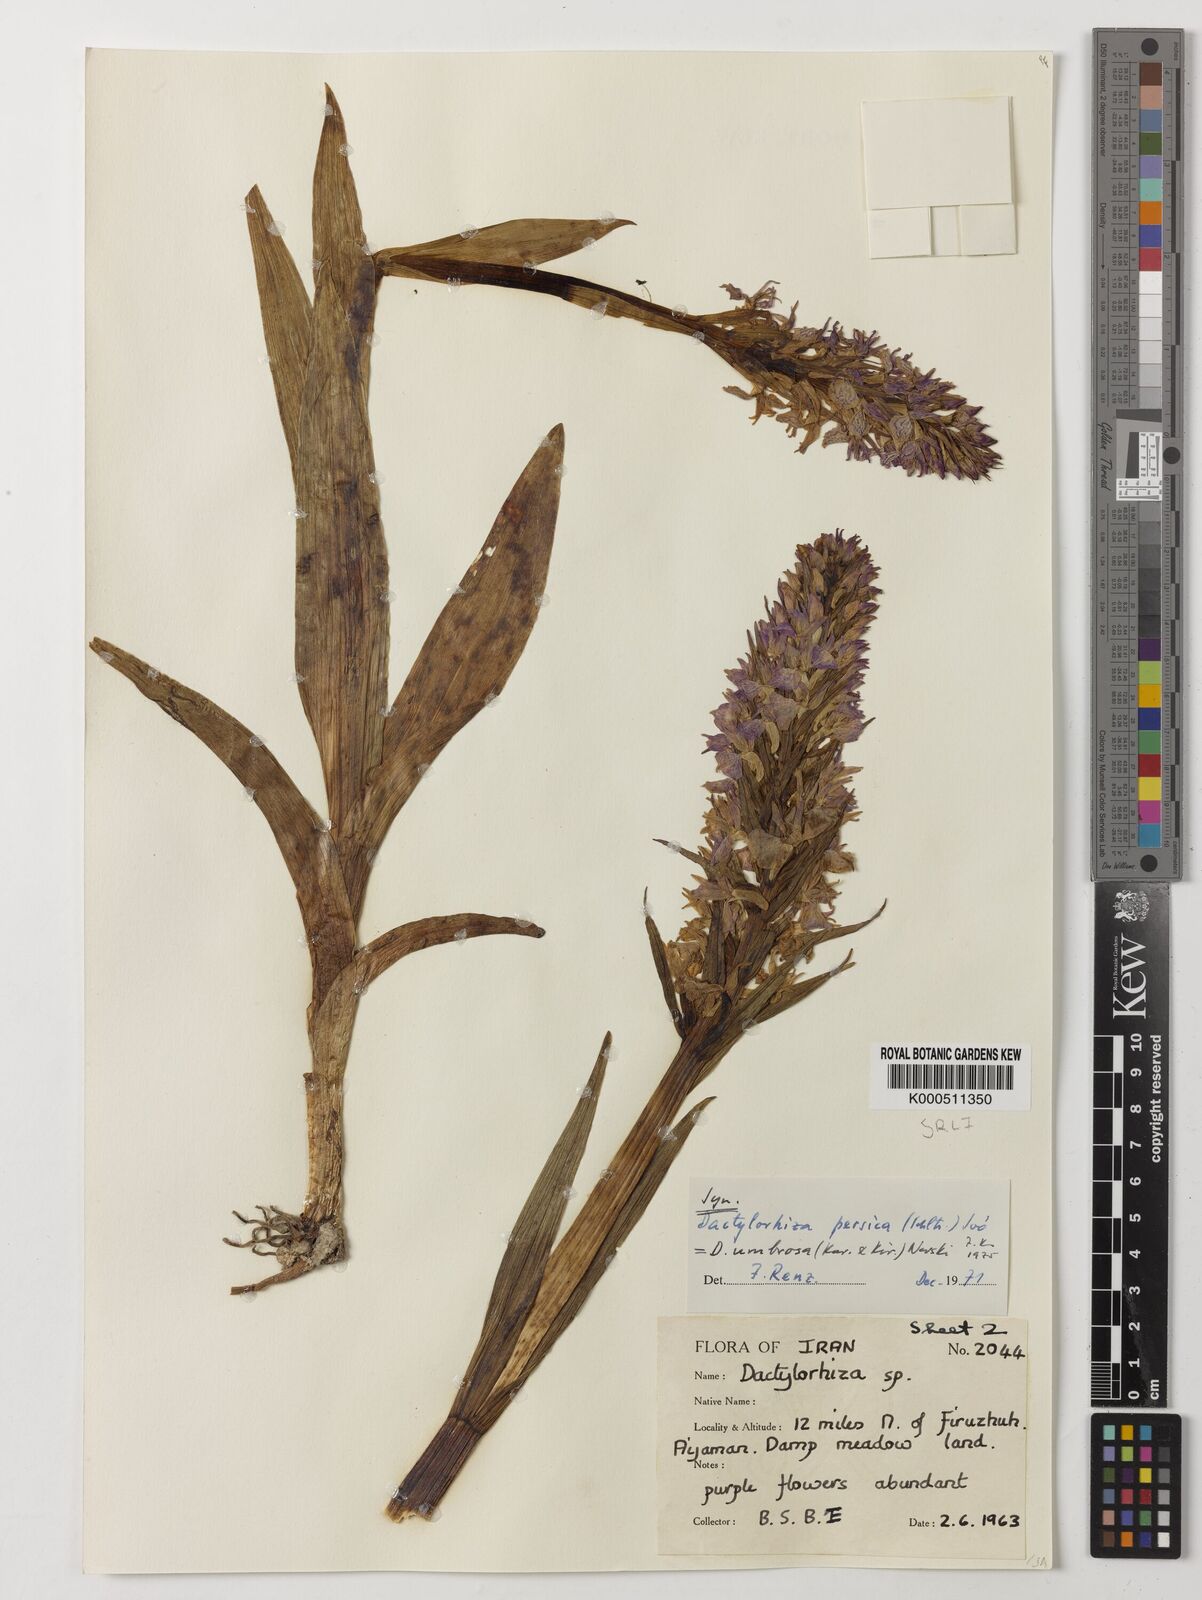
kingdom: Plantae
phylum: Tracheophyta
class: Liliopsida
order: Asparagales
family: Orchidaceae
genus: Dactylorhiza
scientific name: Dactylorhiza
